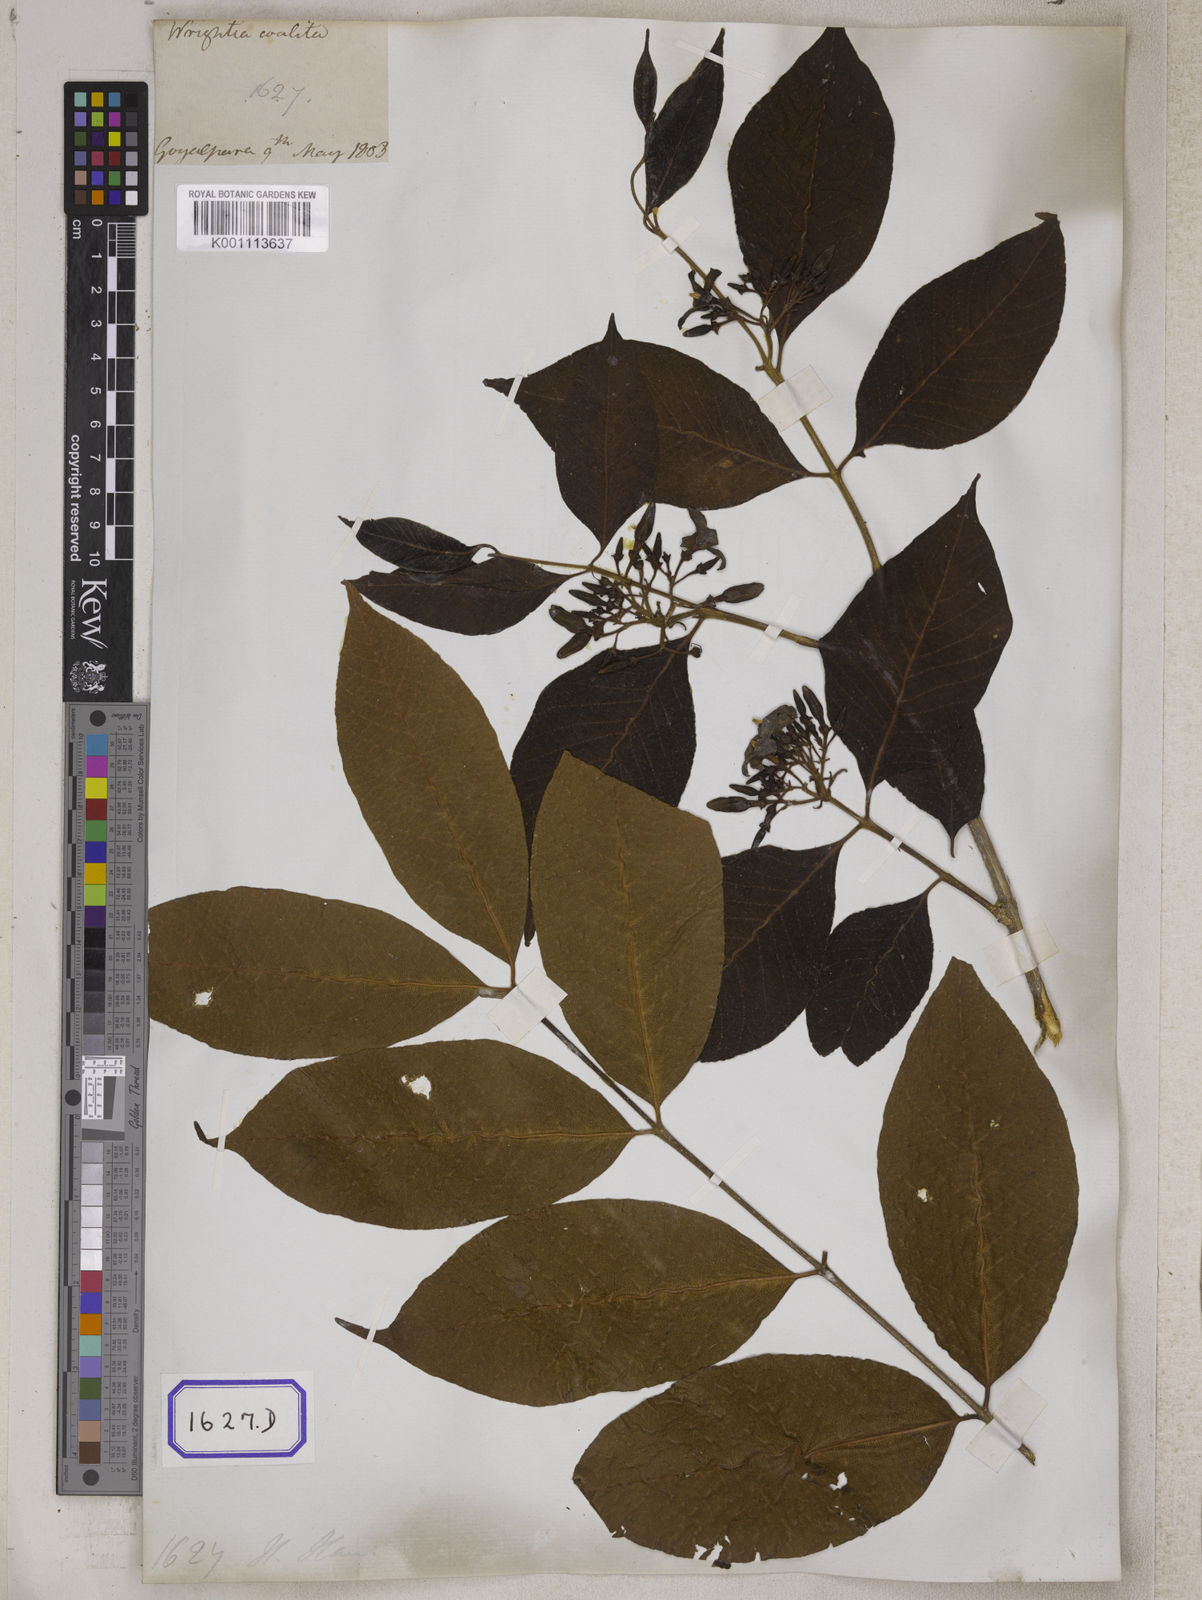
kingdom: Plantae
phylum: Tracheophyta
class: Magnoliopsida
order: Gentianales
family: Apocynaceae
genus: Wrightia
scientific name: Wrightia arborea
